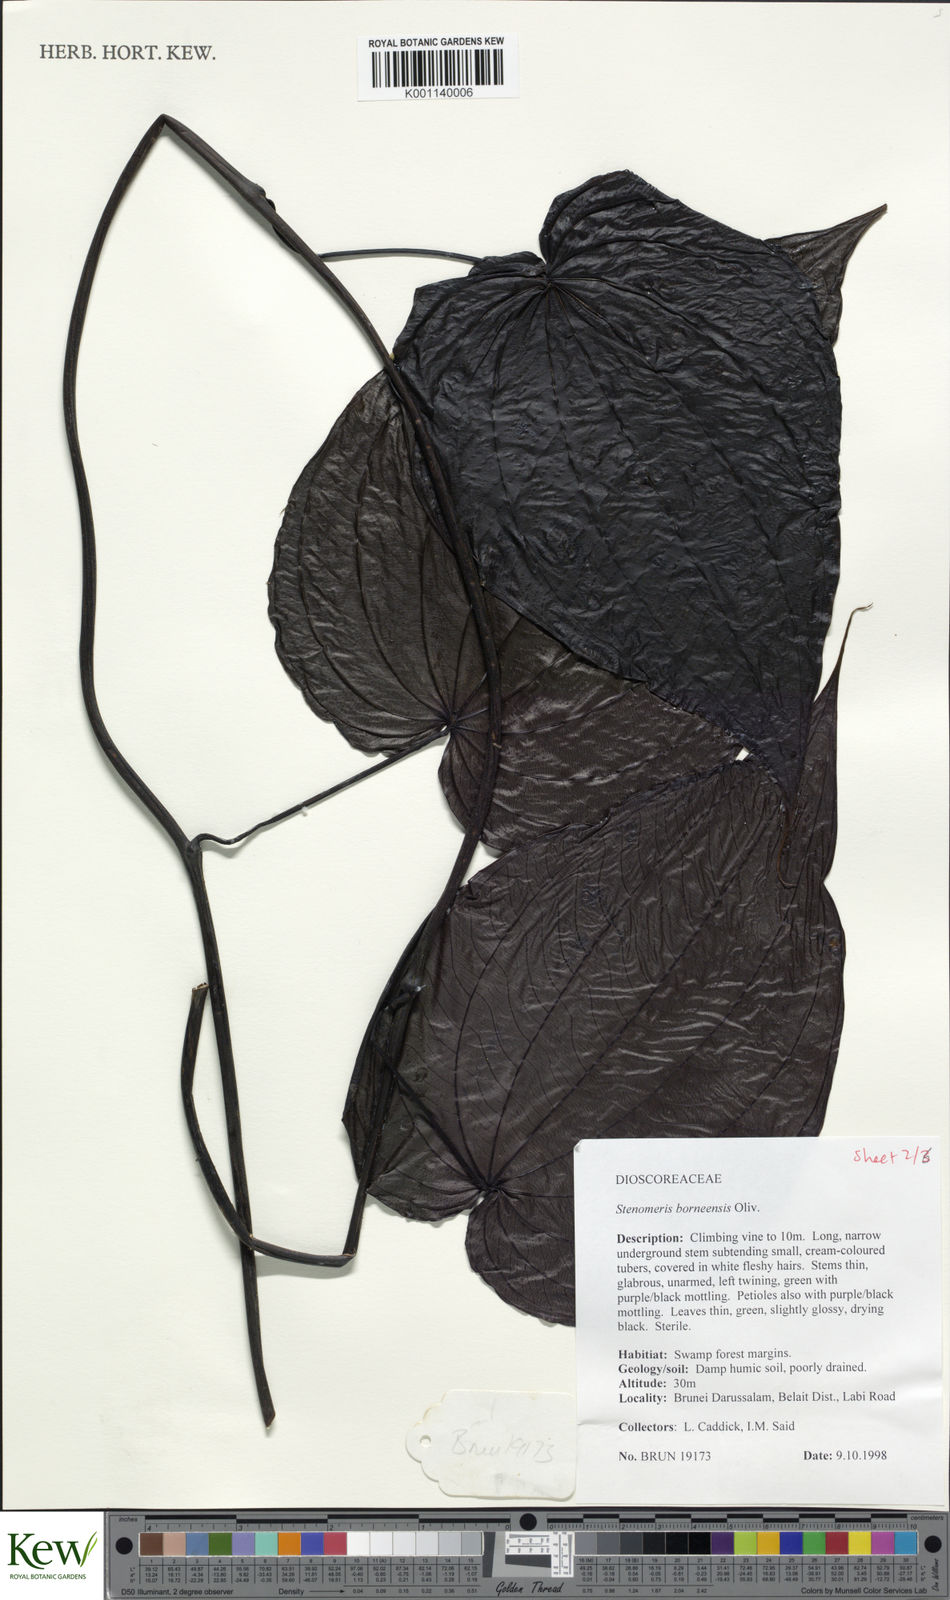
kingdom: Plantae
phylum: Tracheophyta
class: Liliopsida
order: Dioscoreales
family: Dioscoreaceae
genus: Stenomeris
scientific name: Stenomeris borneensis
